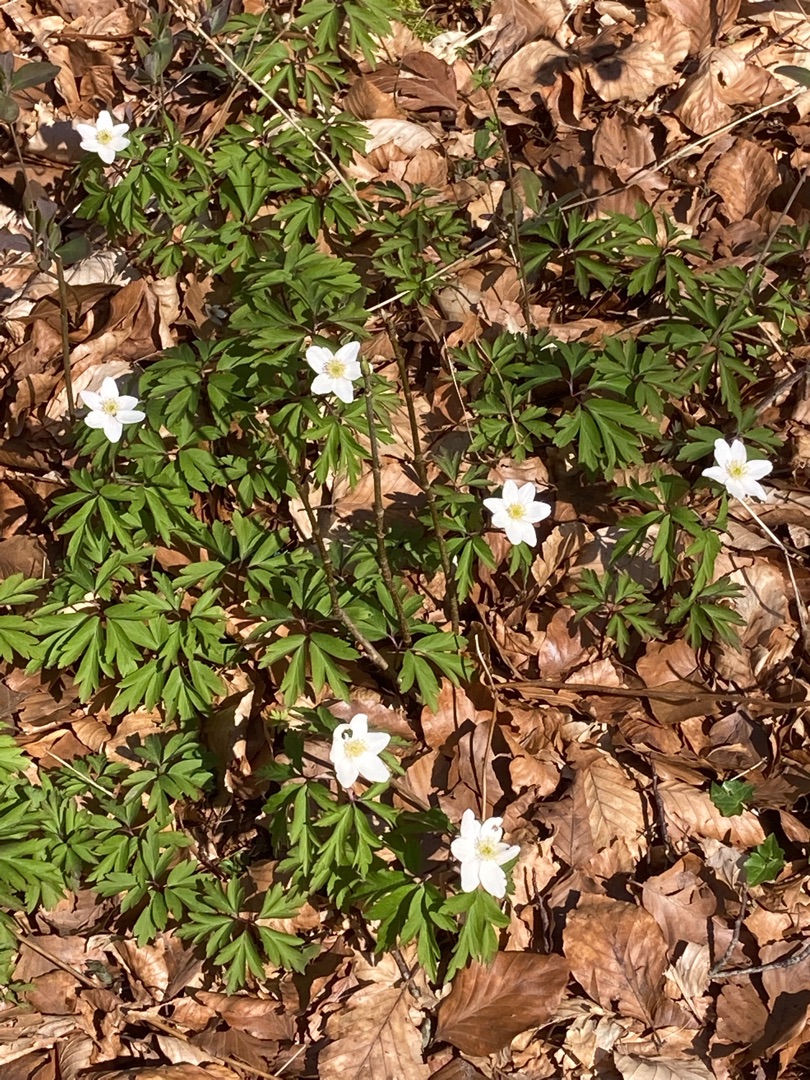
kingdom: Plantae
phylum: Tracheophyta
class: Magnoliopsida
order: Ranunculales
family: Ranunculaceae
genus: Anemone
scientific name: Anemone nemorosa
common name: Hvid anemone
